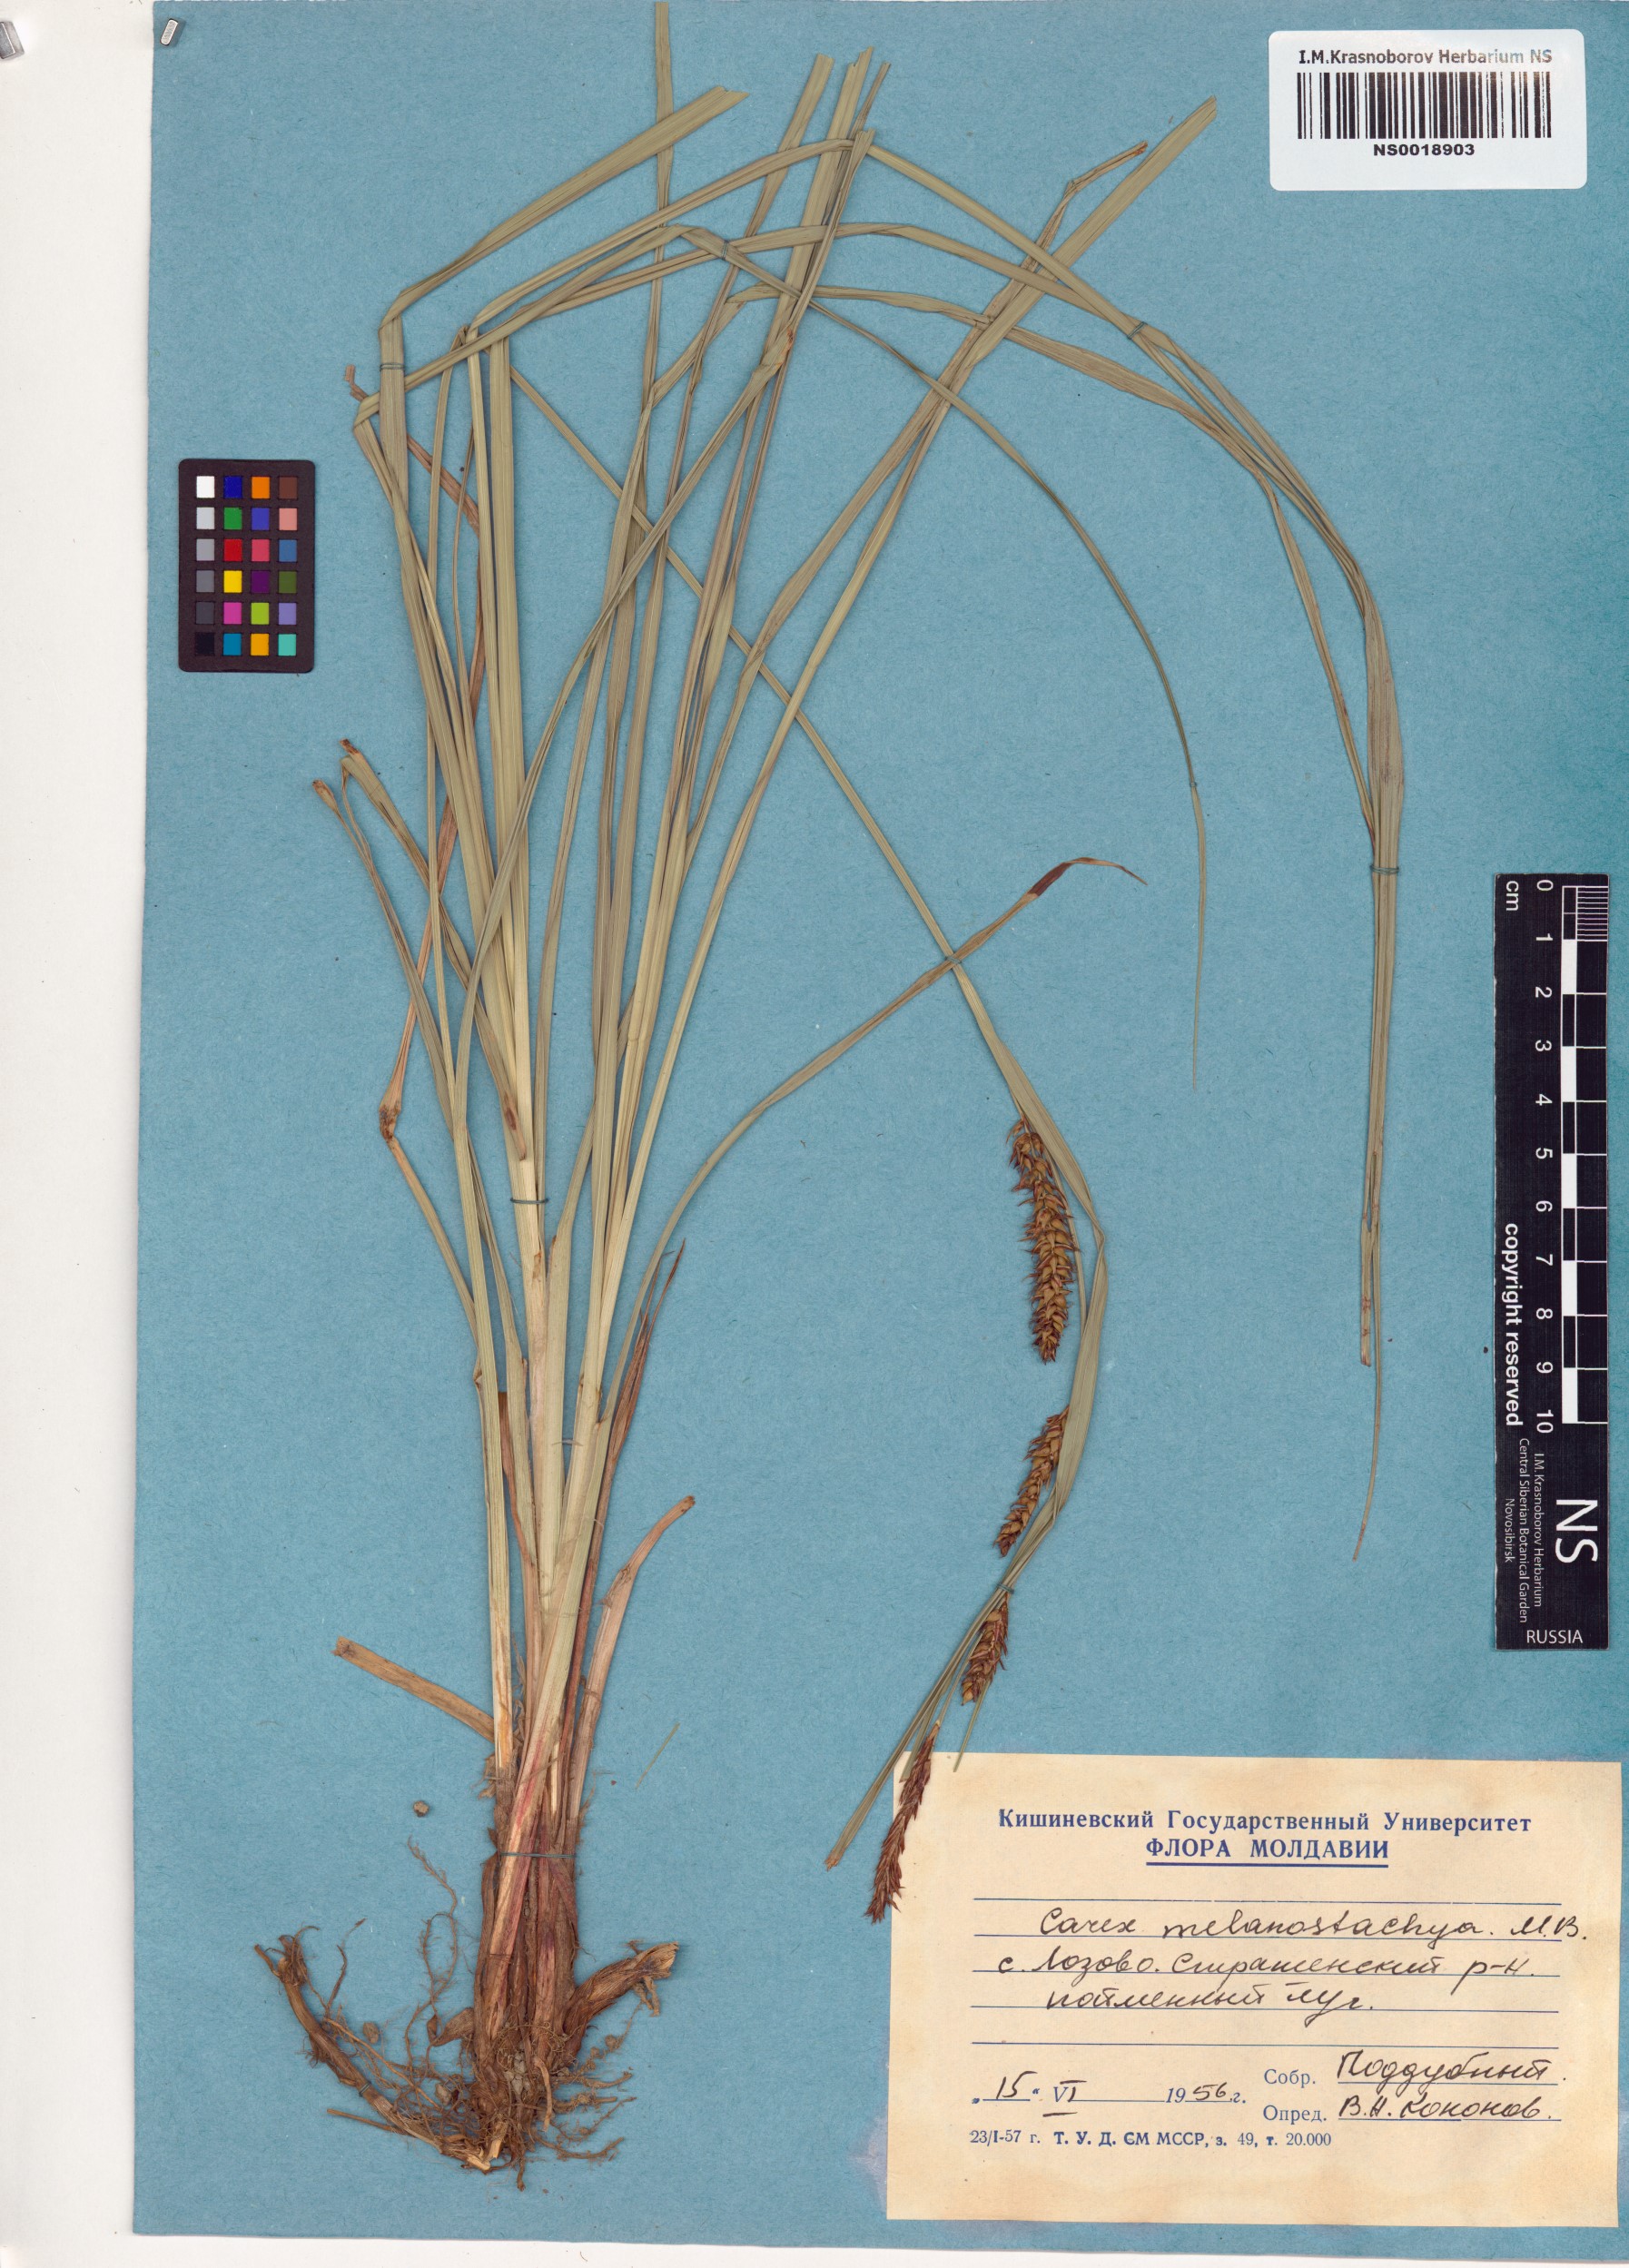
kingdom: Plantae
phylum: Tracheophyta
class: Liliopsida
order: Poales
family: Cyperaceae
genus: Carex
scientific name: Carex melanostachya
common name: Black-spiked sedge
